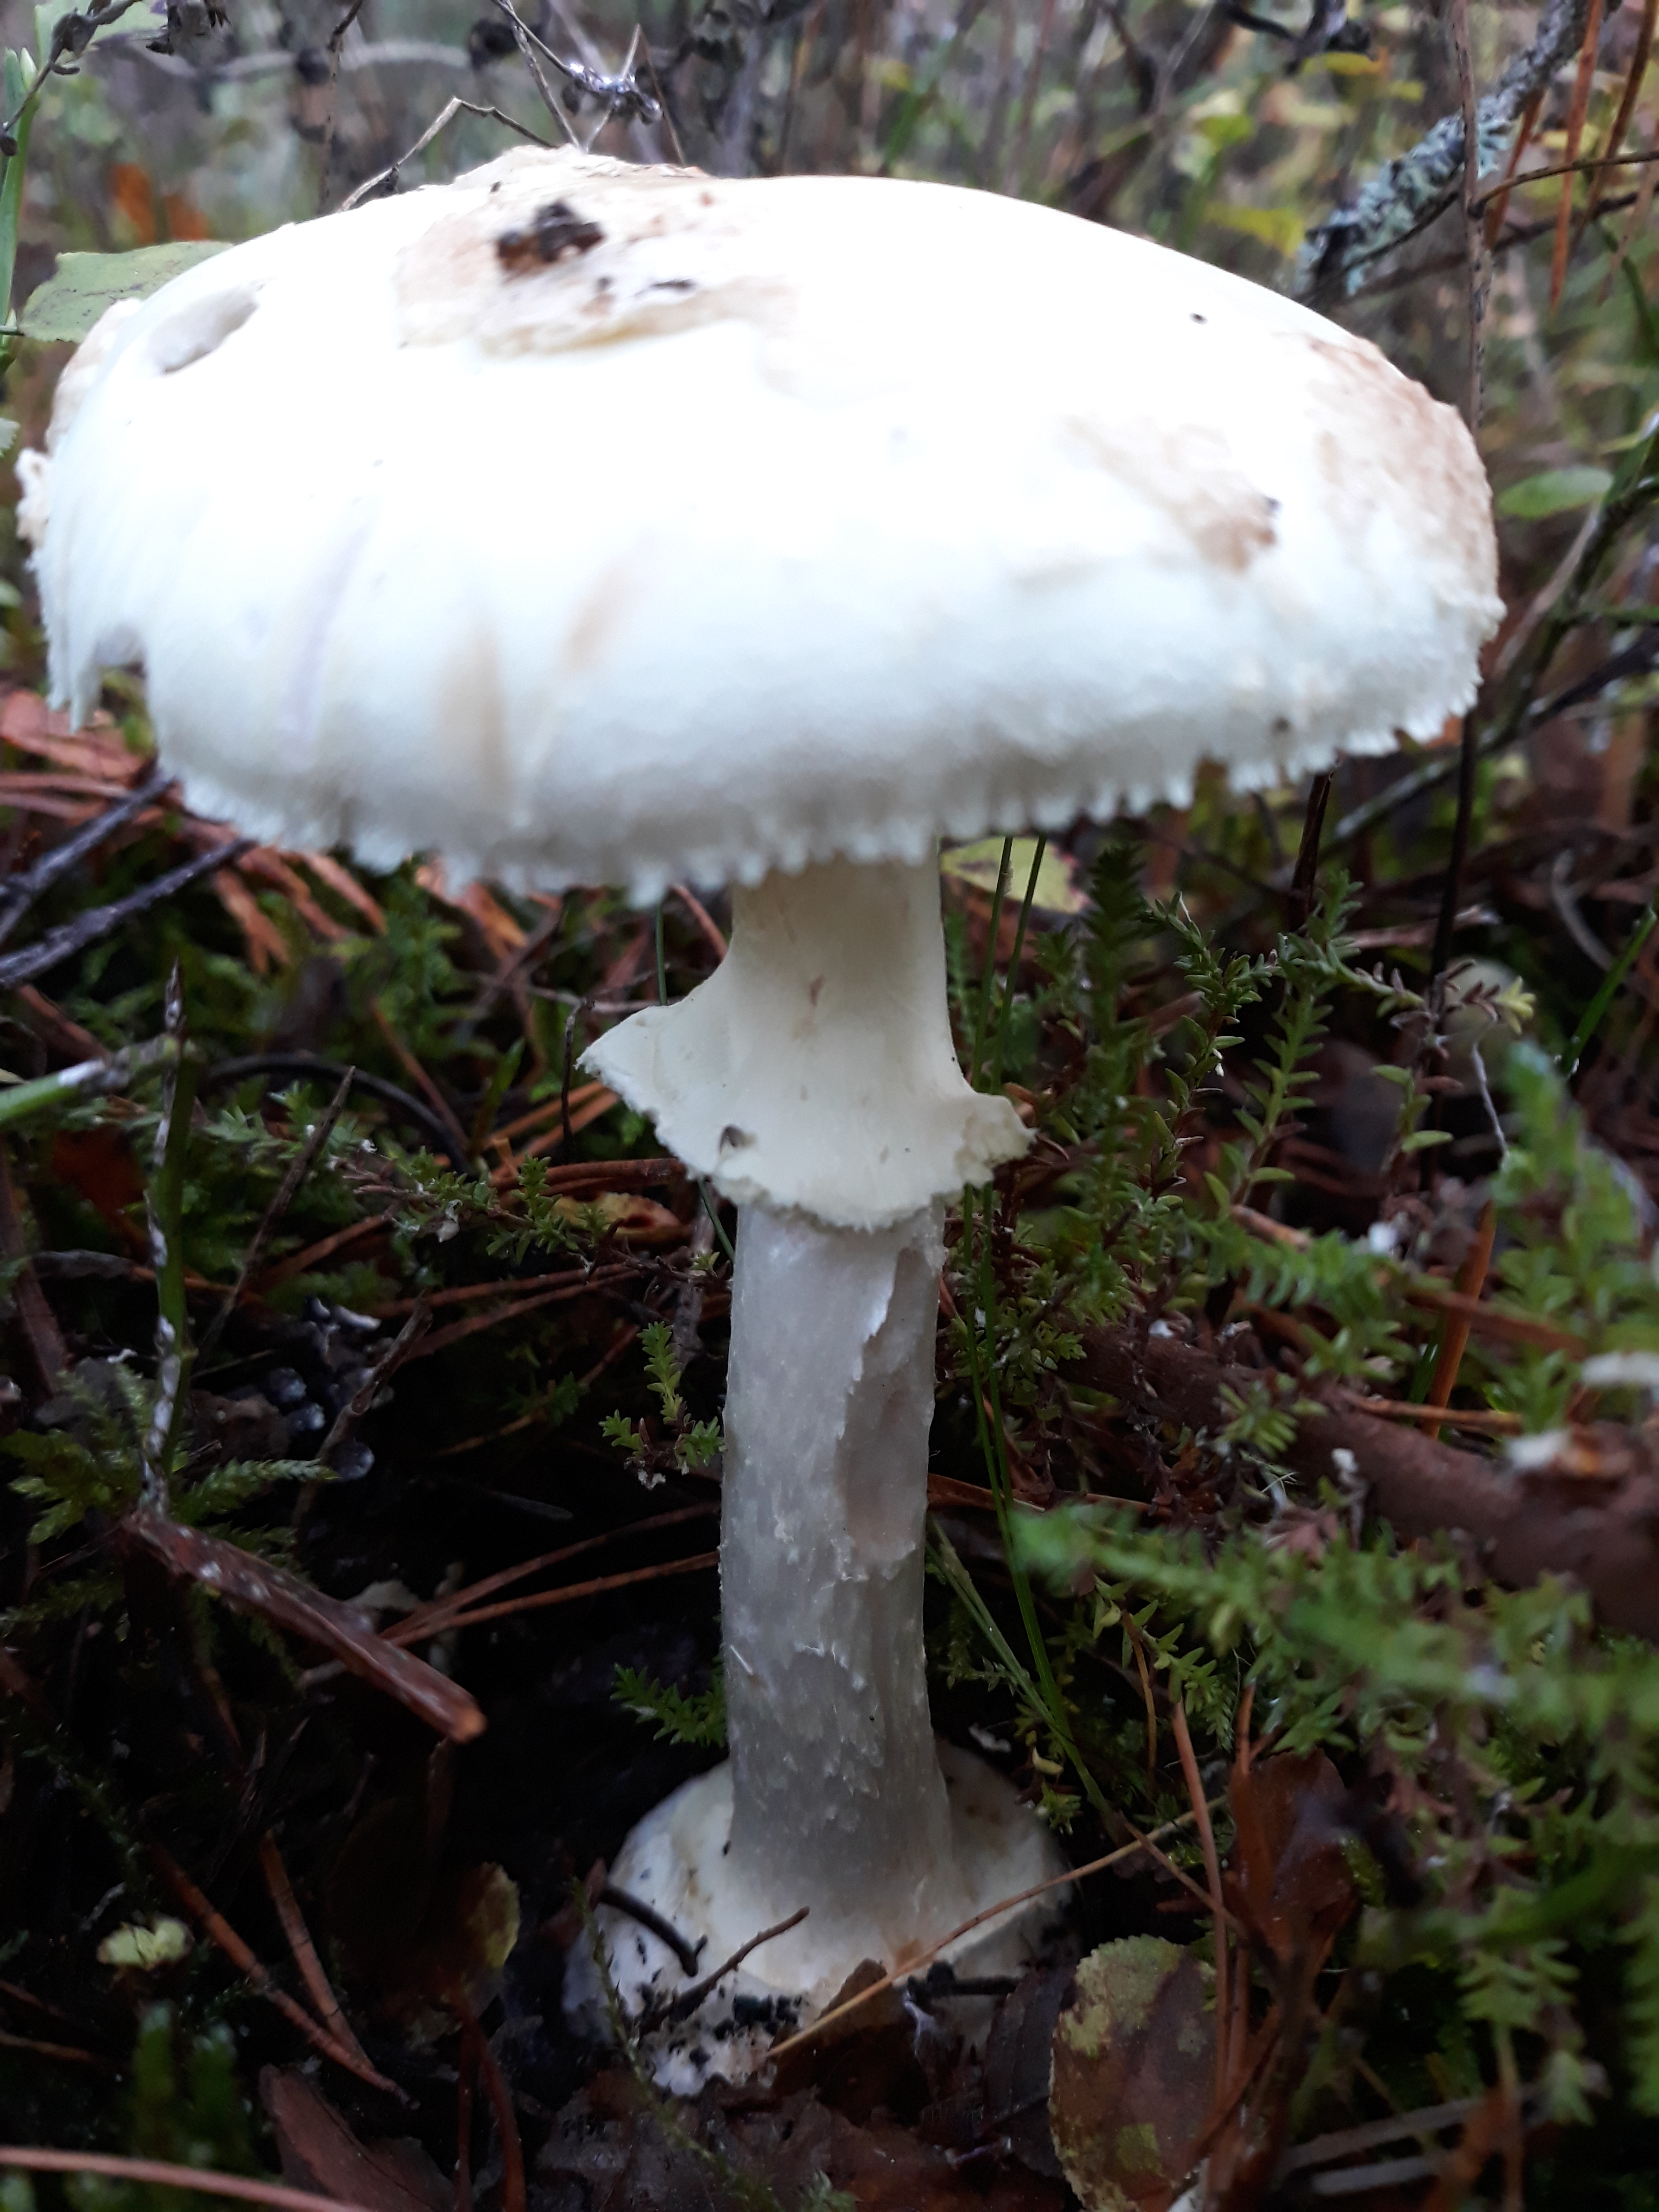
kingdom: Fungi
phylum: Basidiomycota
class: Agaricomycetes
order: Agaricales
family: Amanitaceae
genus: Amanita
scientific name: Amanita citrina
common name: False death-cap
